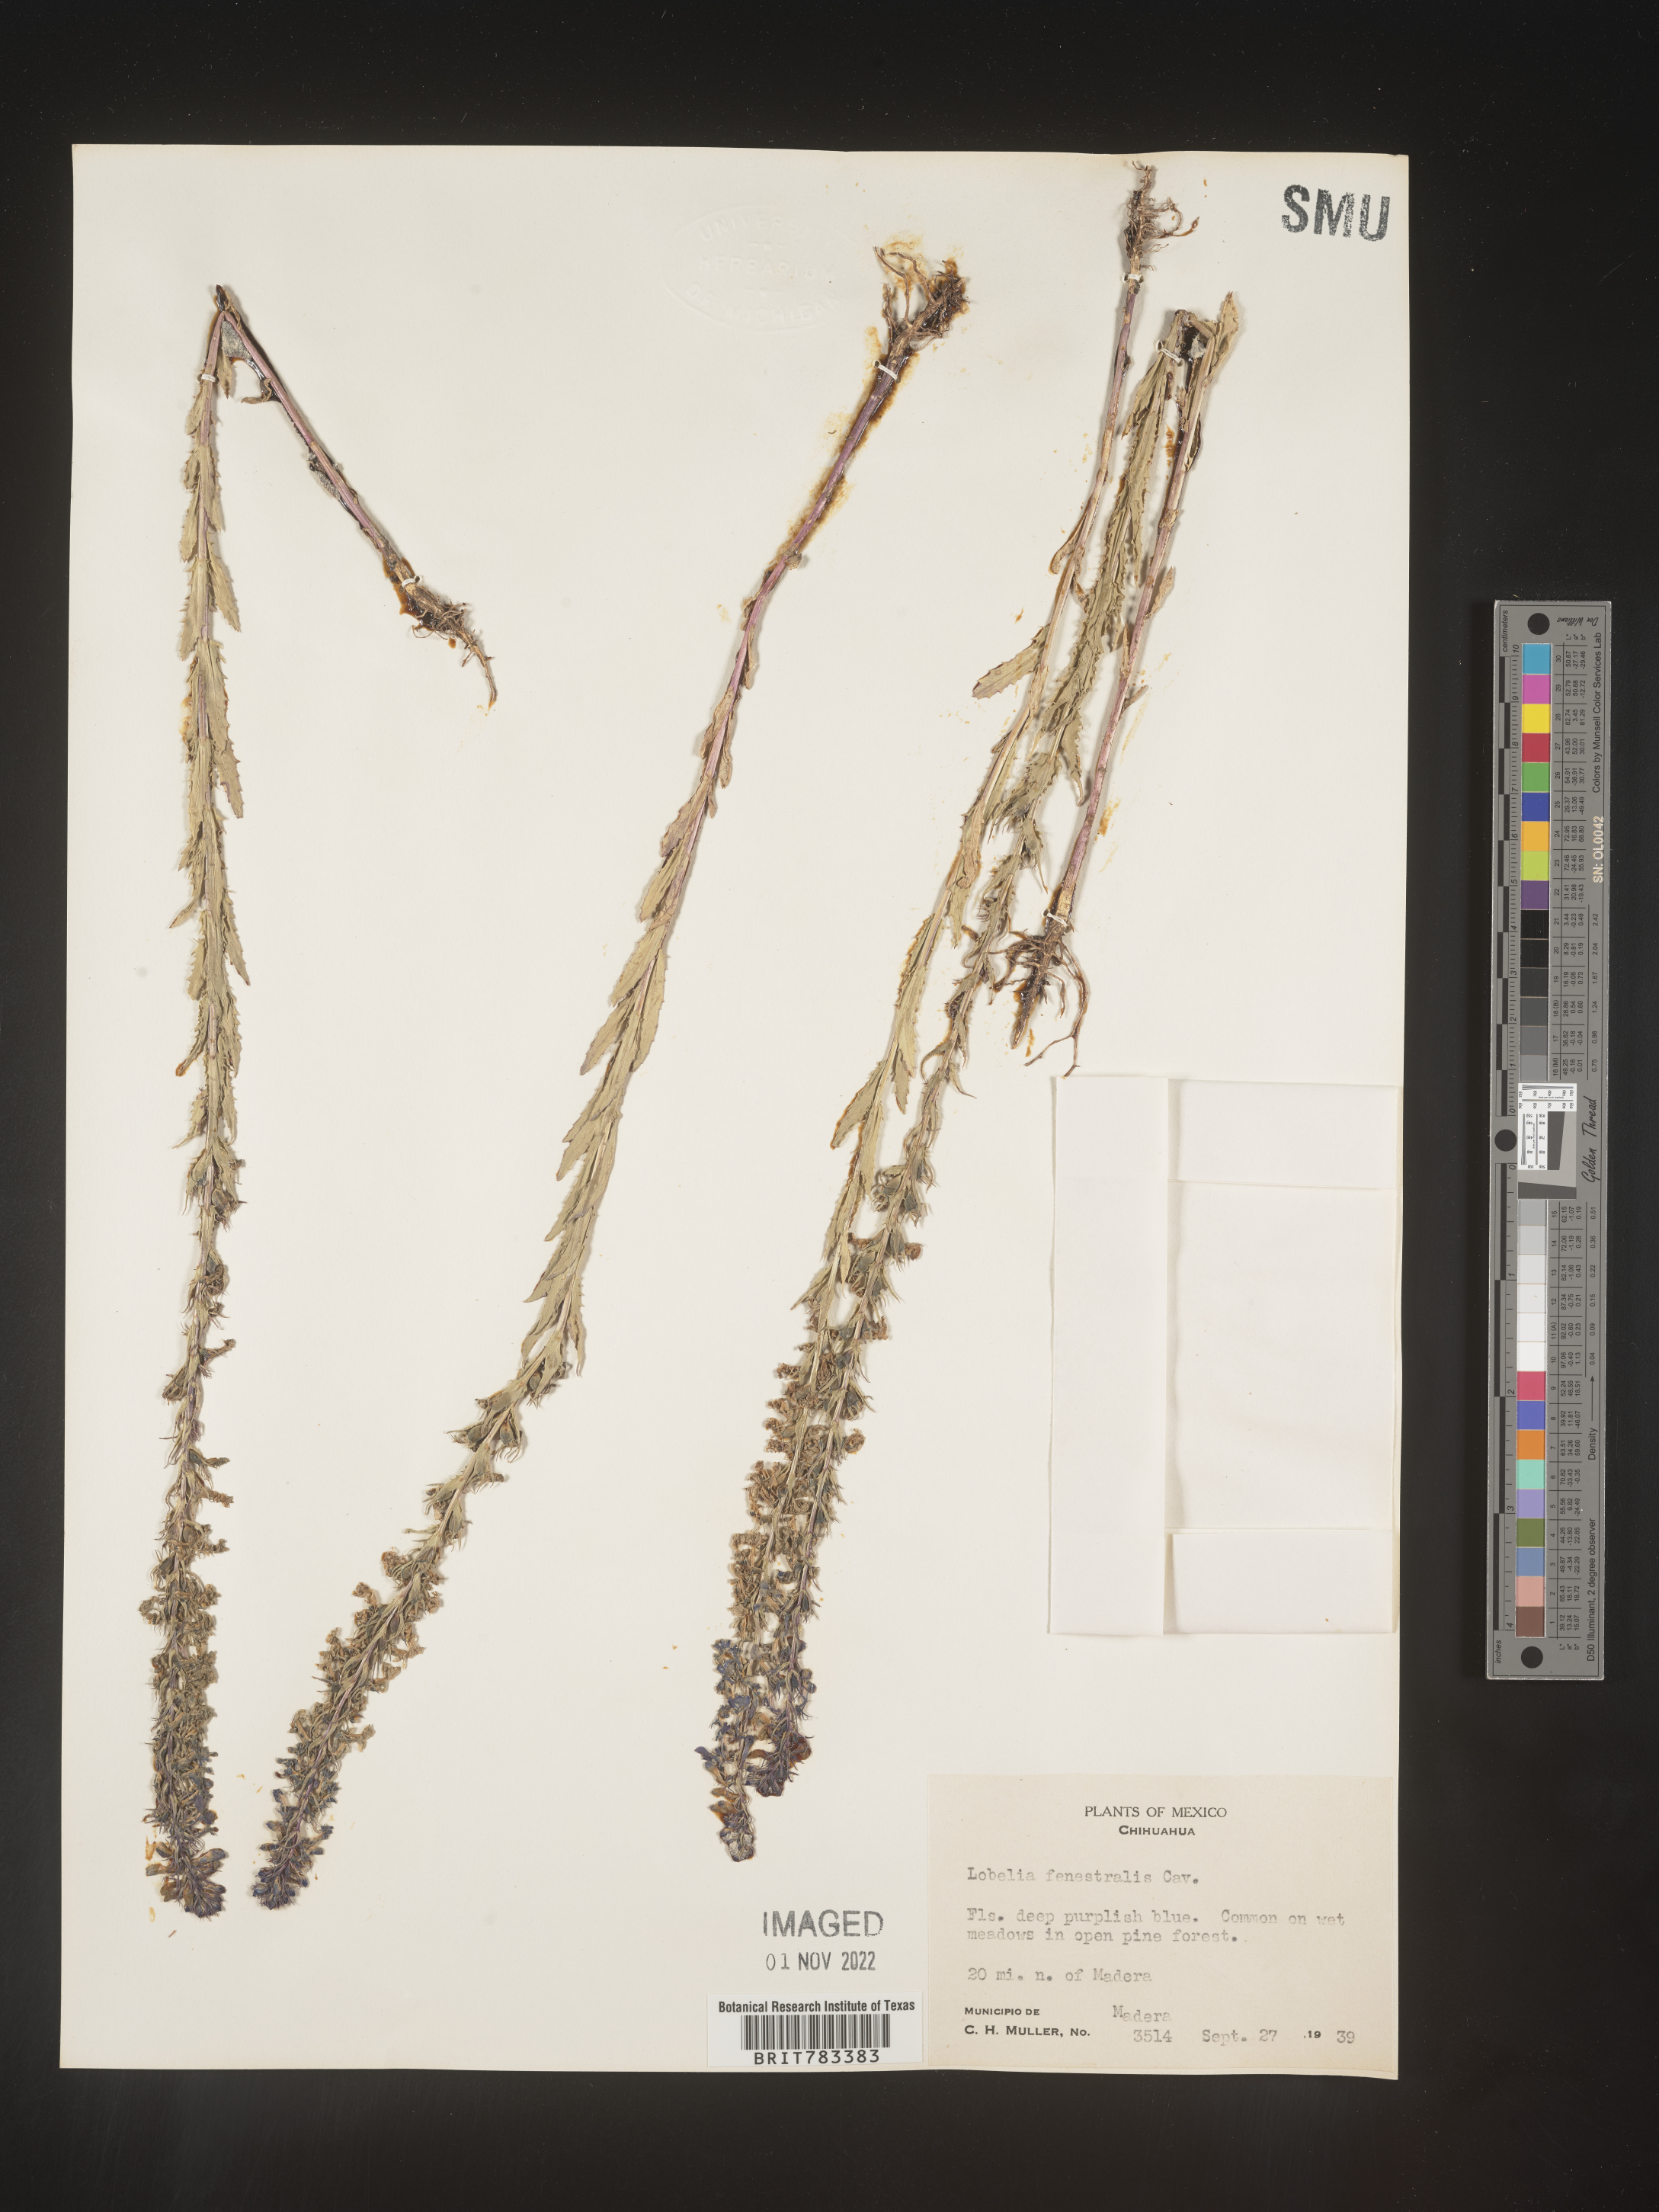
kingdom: Plantae
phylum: Tracheophyta
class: Magnoliopsida
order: Asterales
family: Campanulaceae
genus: Lobelia
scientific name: Lobelia
